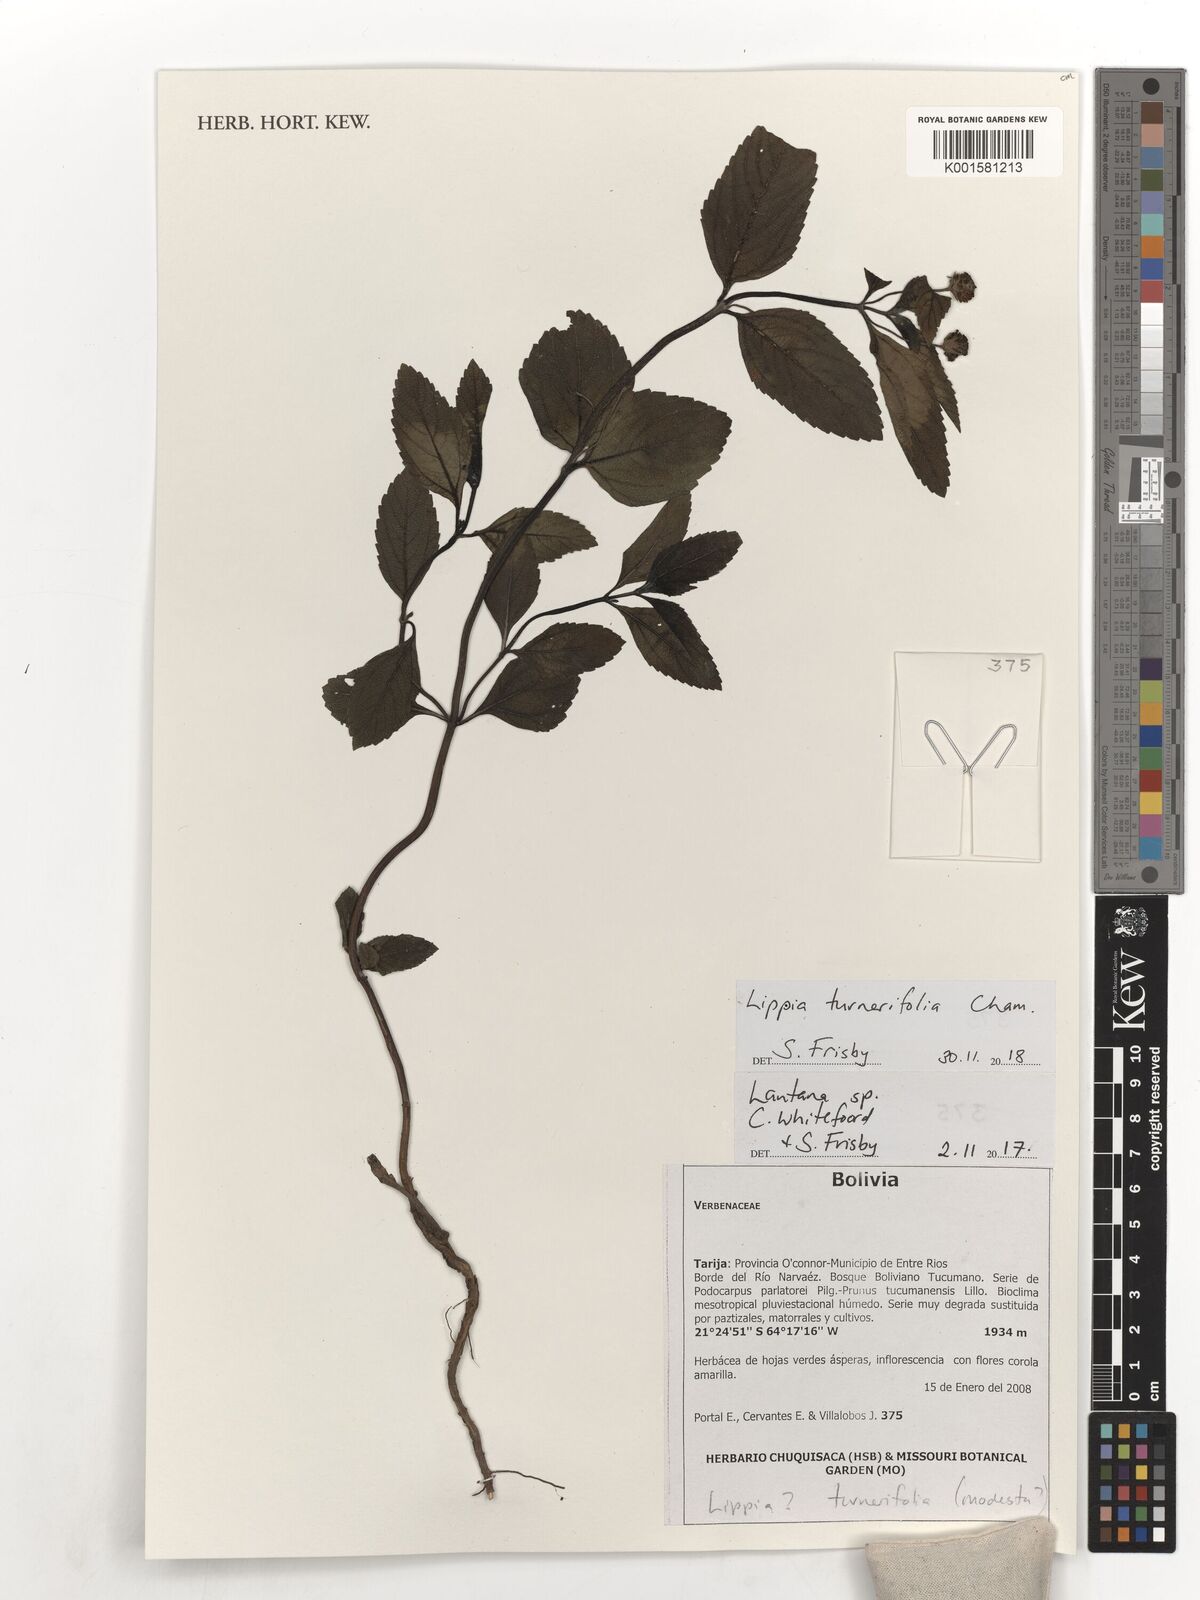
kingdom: Plantae
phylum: Tracheophyta
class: Magnoliopsida
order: Lamiales
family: Verbenaceae
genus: Lippia
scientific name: Lippia turnerifolia
